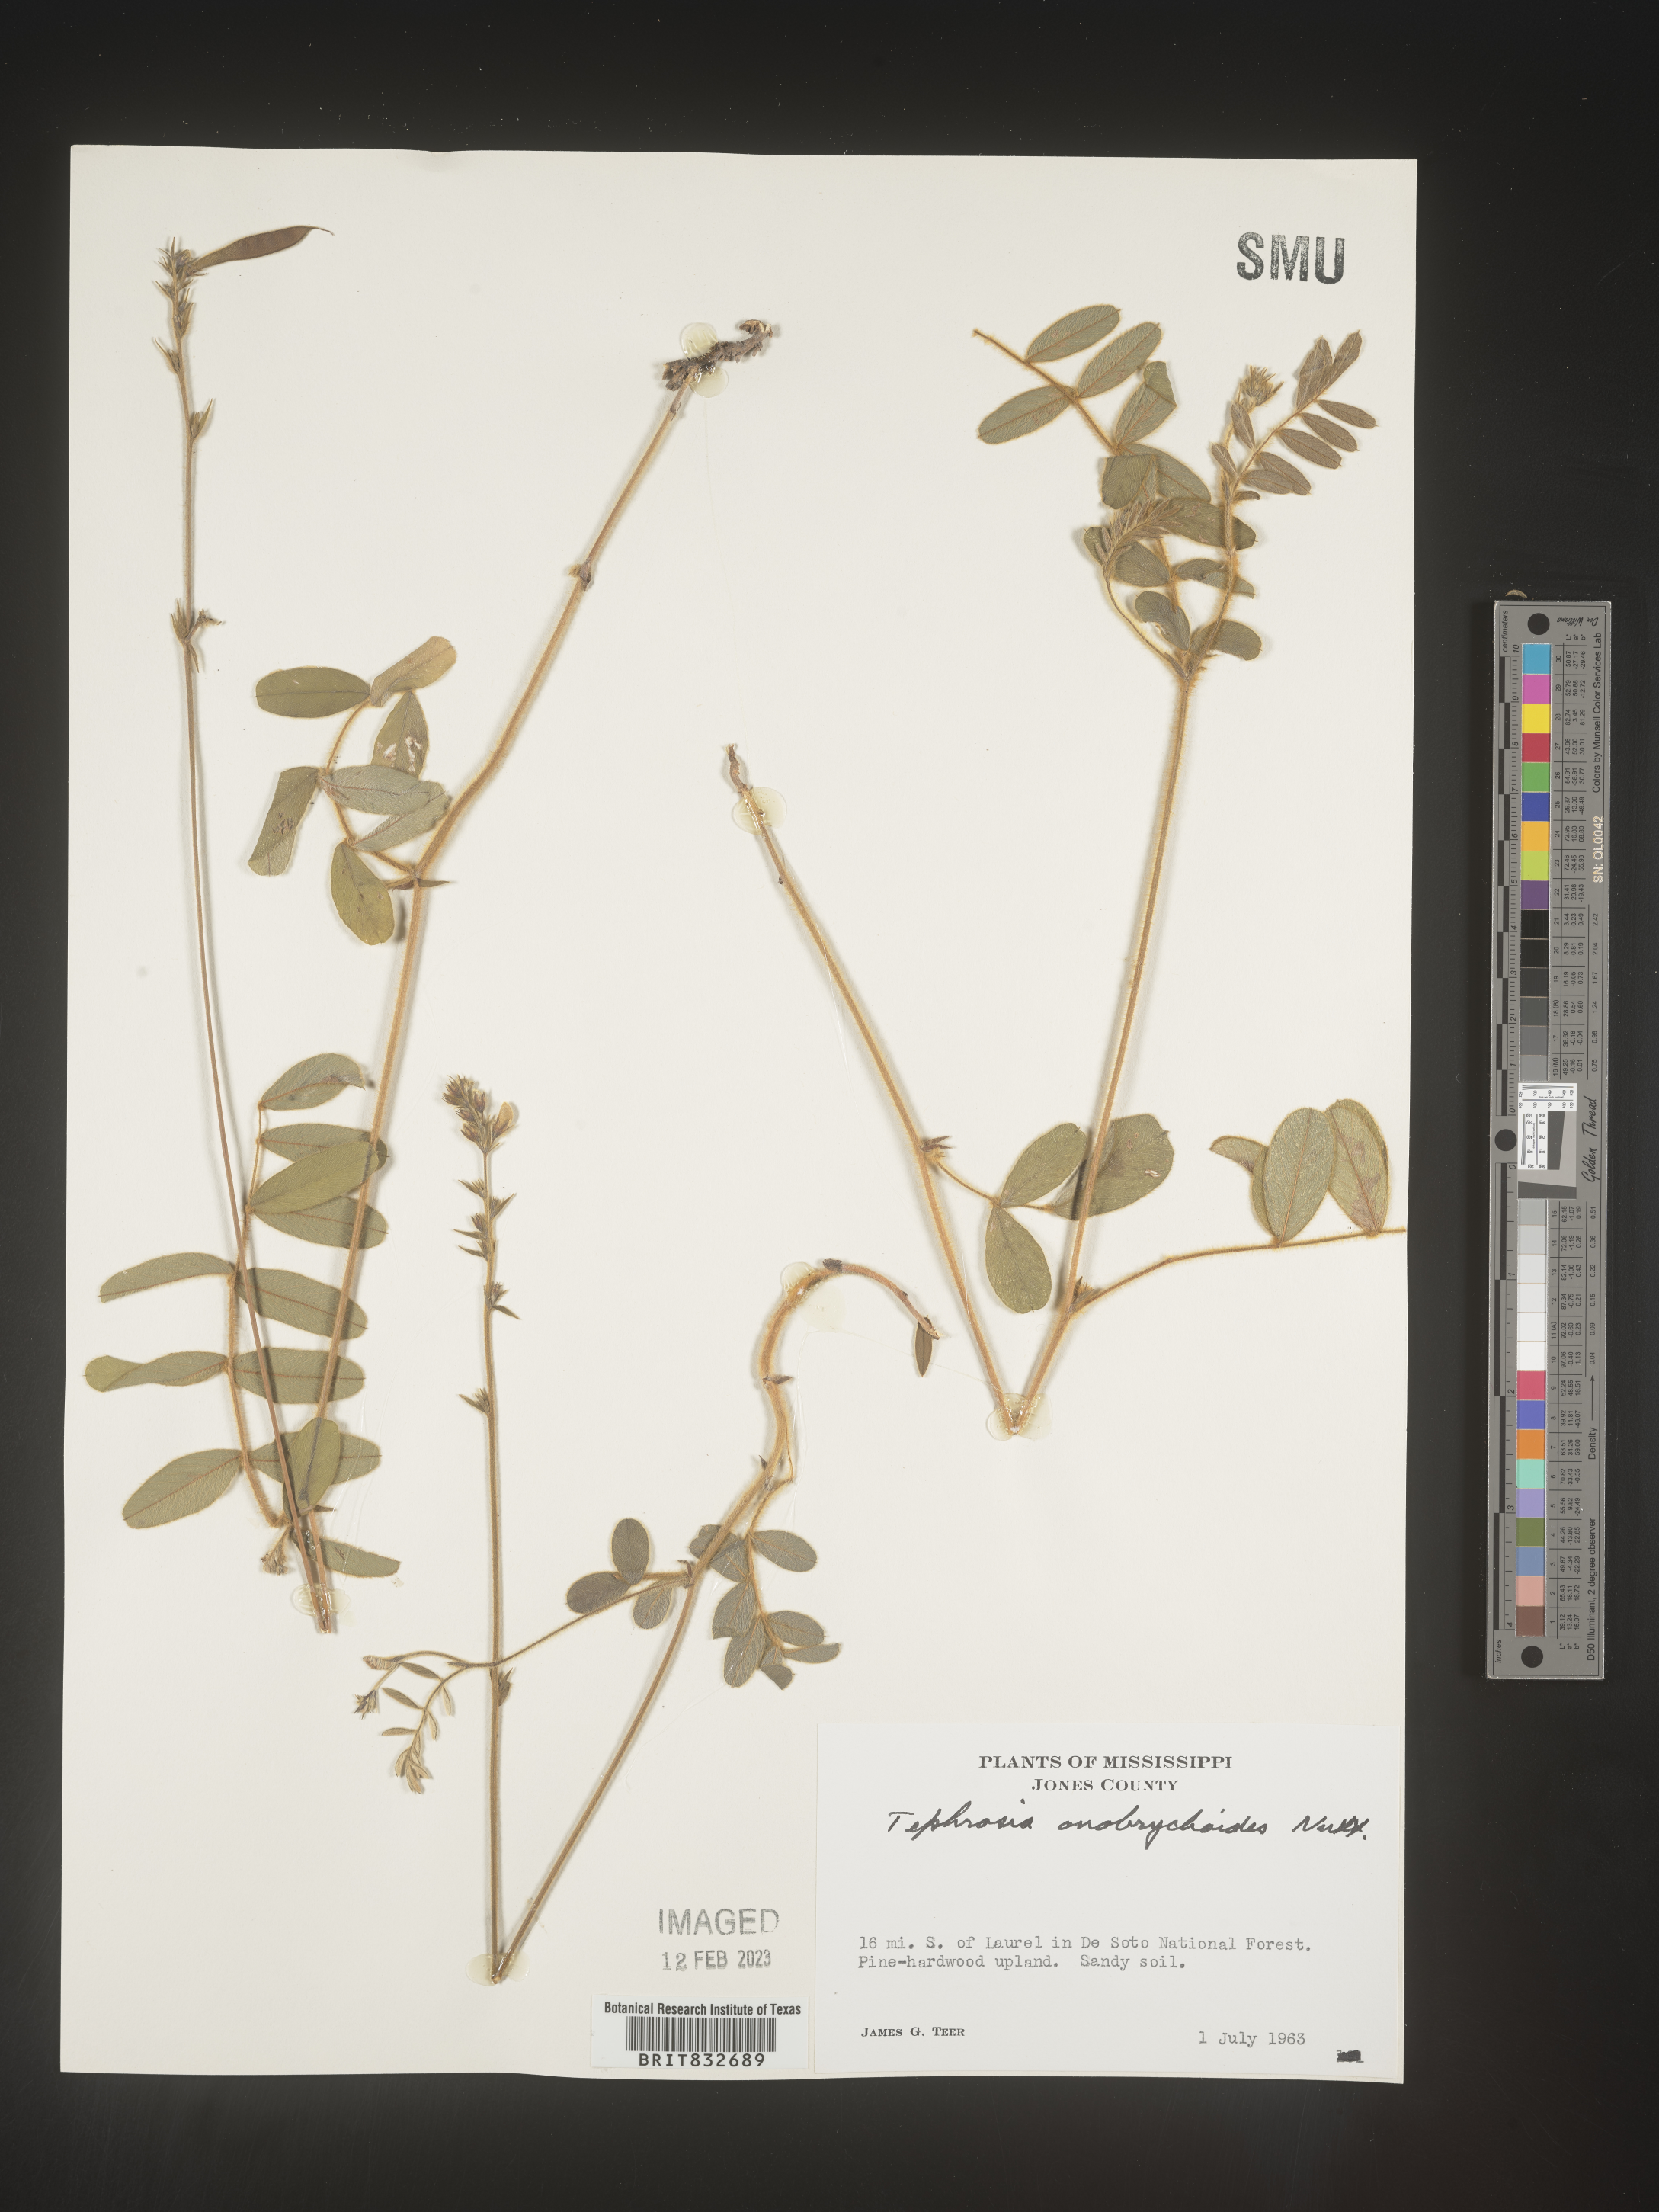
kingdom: Plantae
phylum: Tracheophyta
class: Magnoliopsida
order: Fabales
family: Fabaceae
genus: Tephrosia
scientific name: Tephrosia onobrychoides
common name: Multi-bloom hoary-pea
